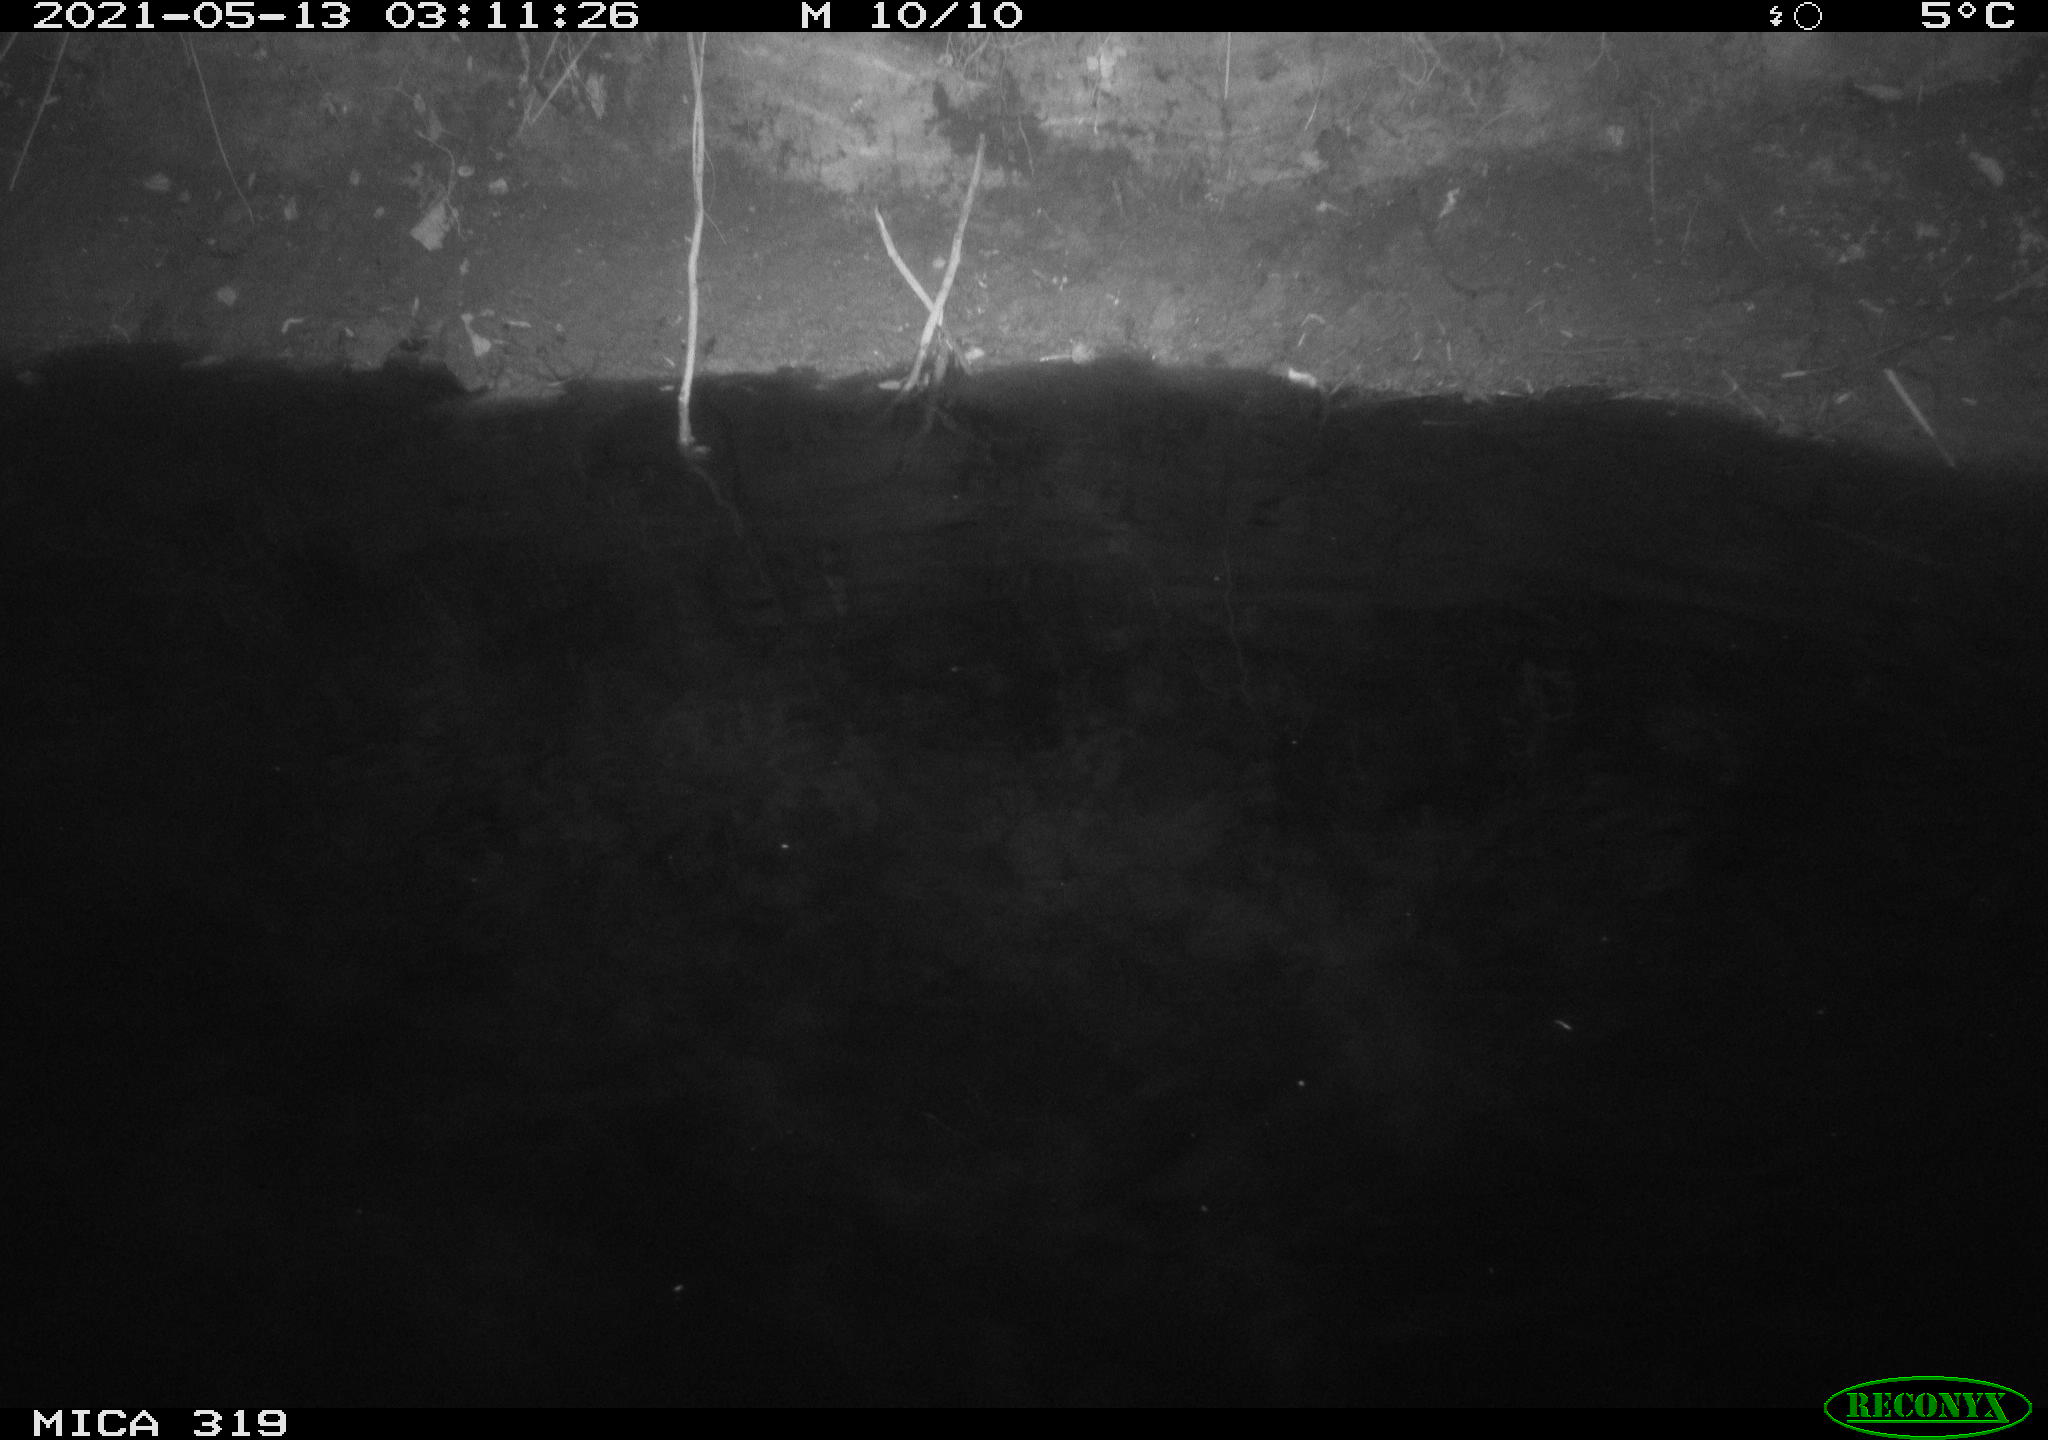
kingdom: Animalia
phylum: Chordata
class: Aves
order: Anseriformes
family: Anatidae
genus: Anas
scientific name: Anas platyrhynchos
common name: Mallard
